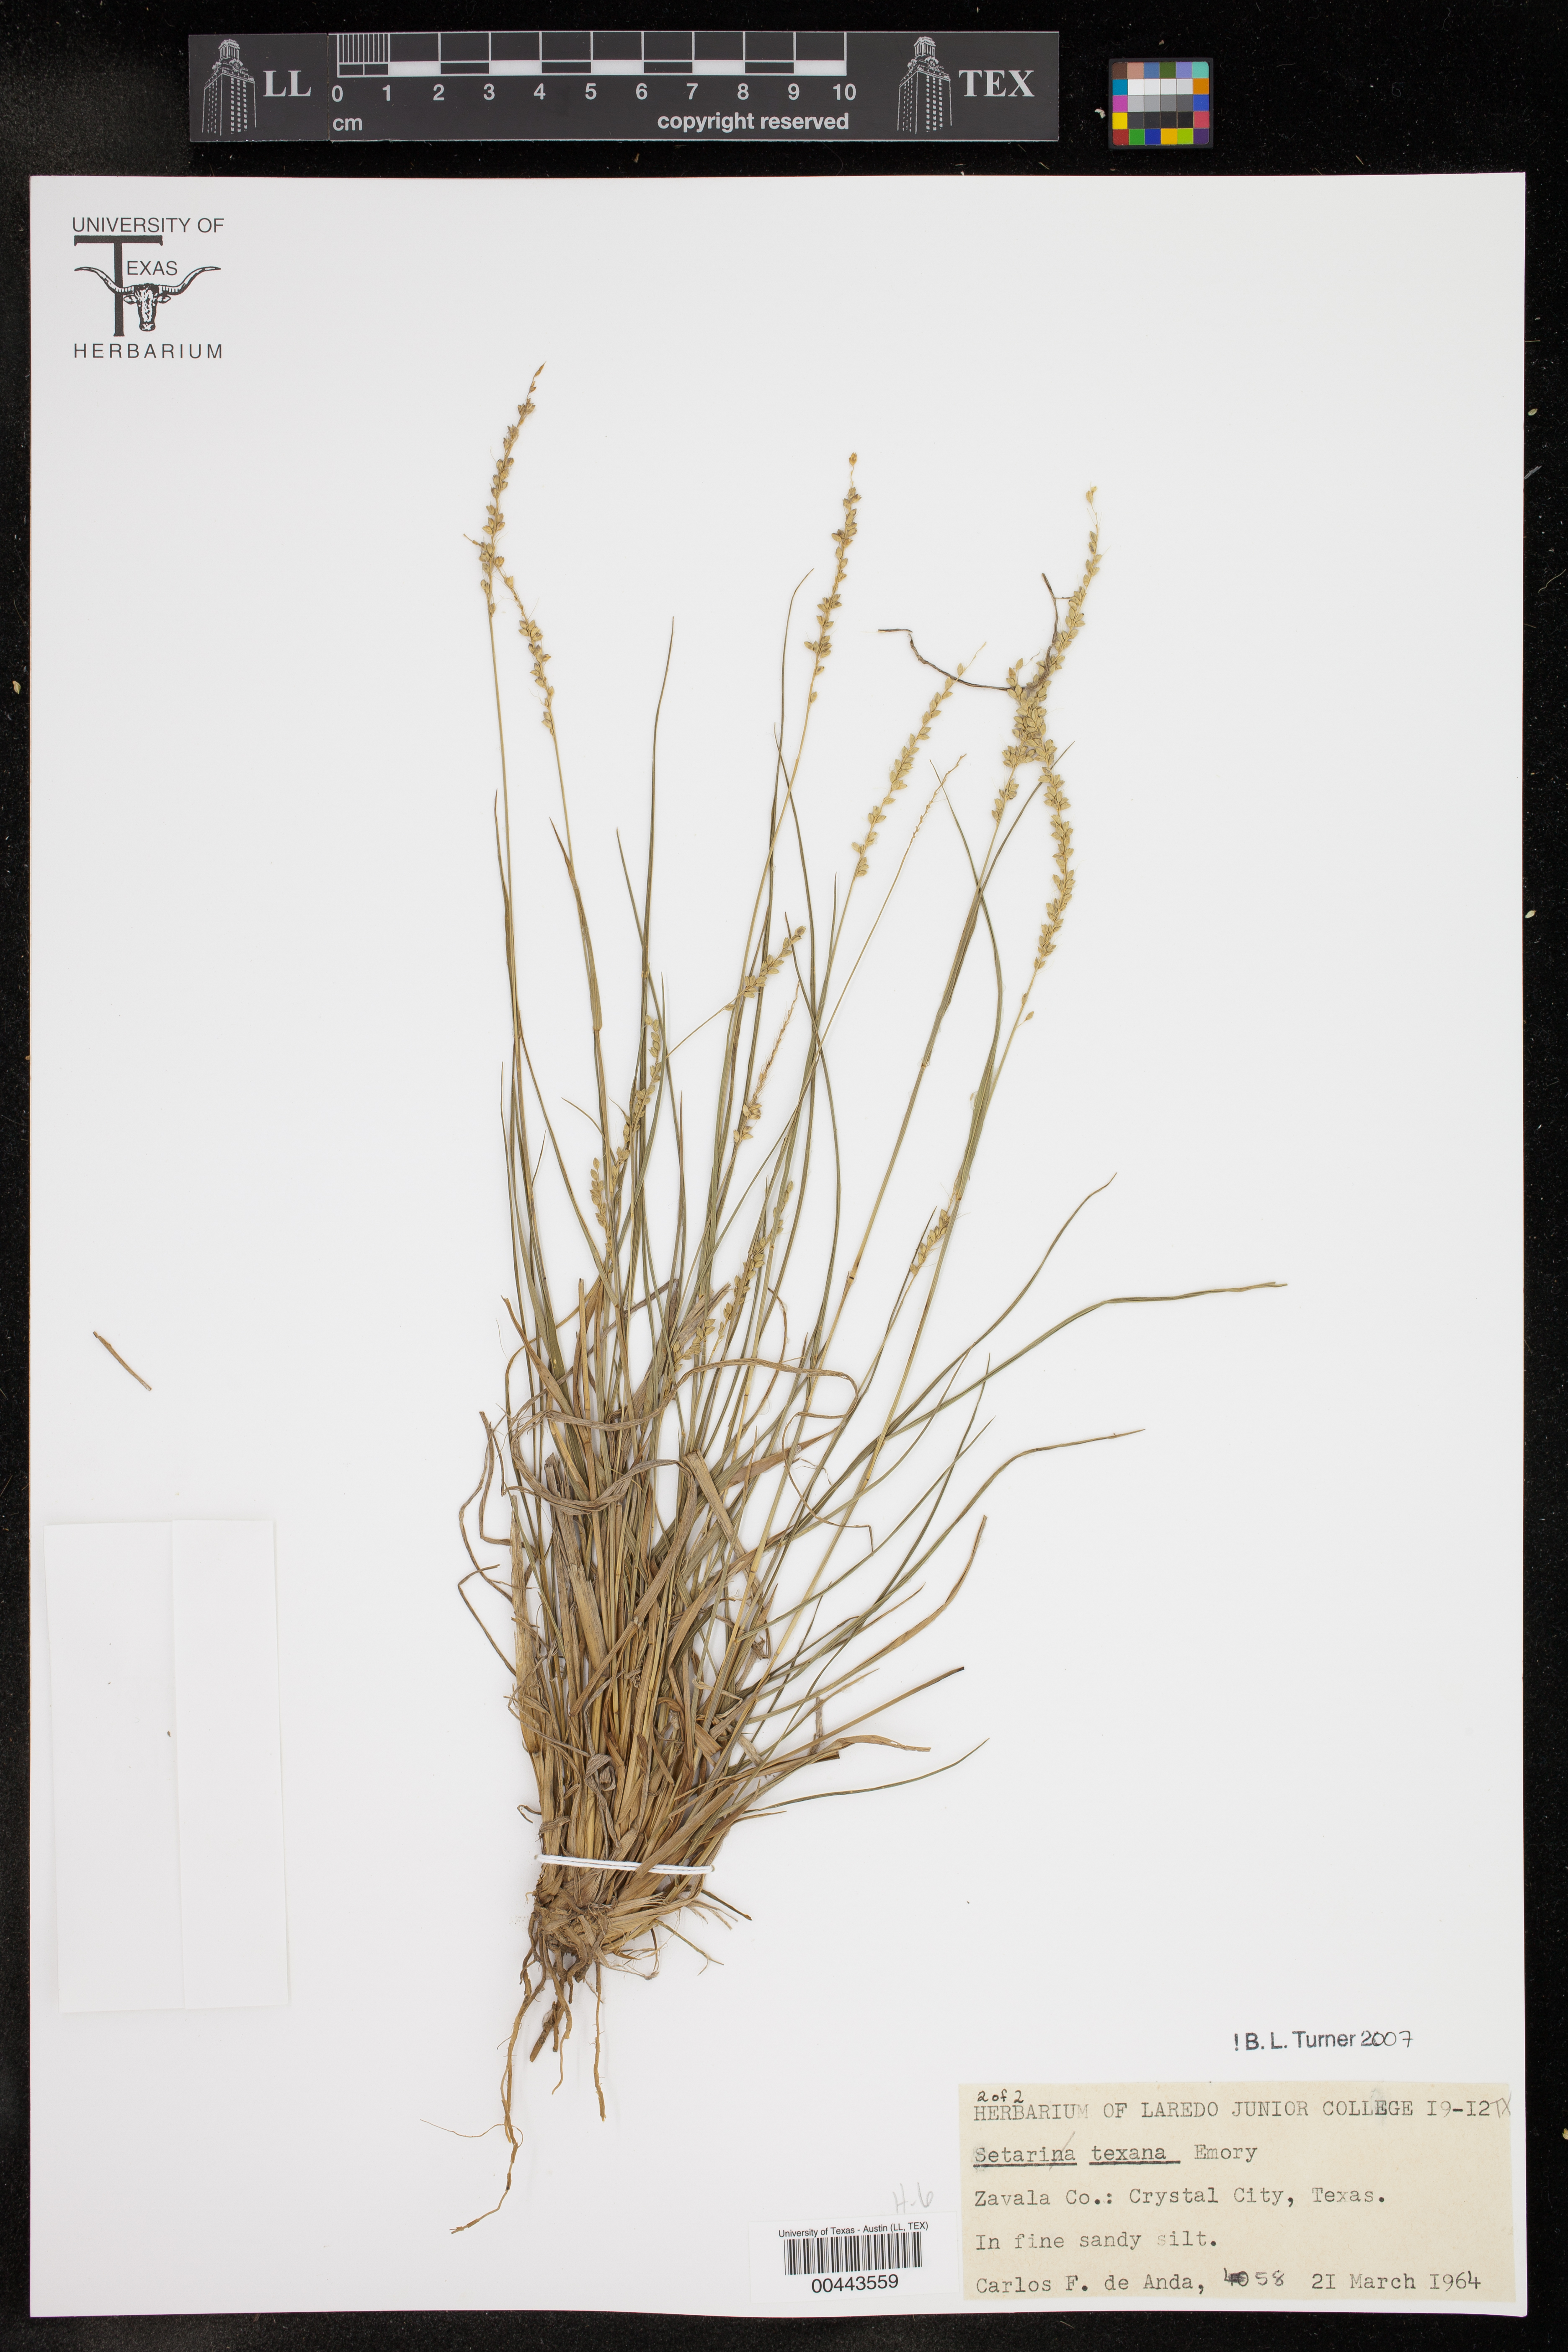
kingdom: Plantae
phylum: Tracheophyta
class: Liliopsida
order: Poales
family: Poaceae
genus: Setaria
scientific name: Setaria texana
